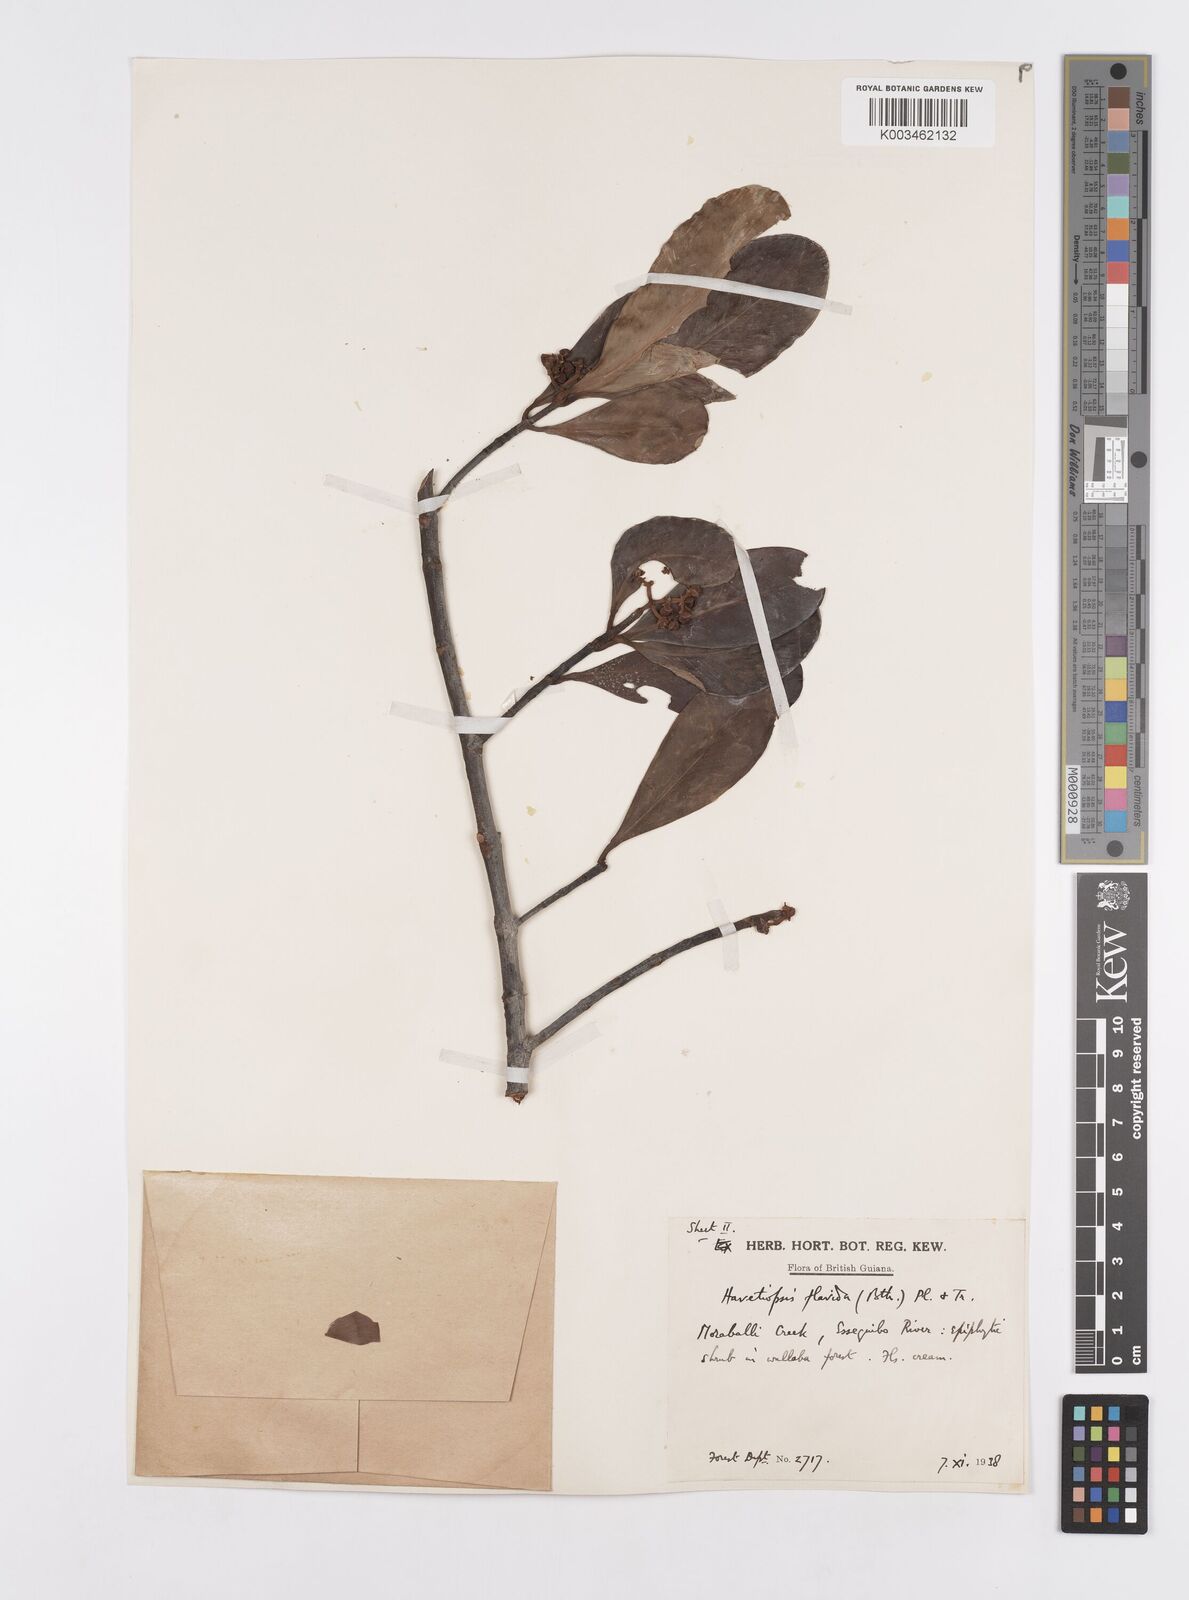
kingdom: Plantae
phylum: Tracheophyta
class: Magnoliopsida
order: Malpighiales
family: Clusiaceae
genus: Clusia
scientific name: Clusia flavida
